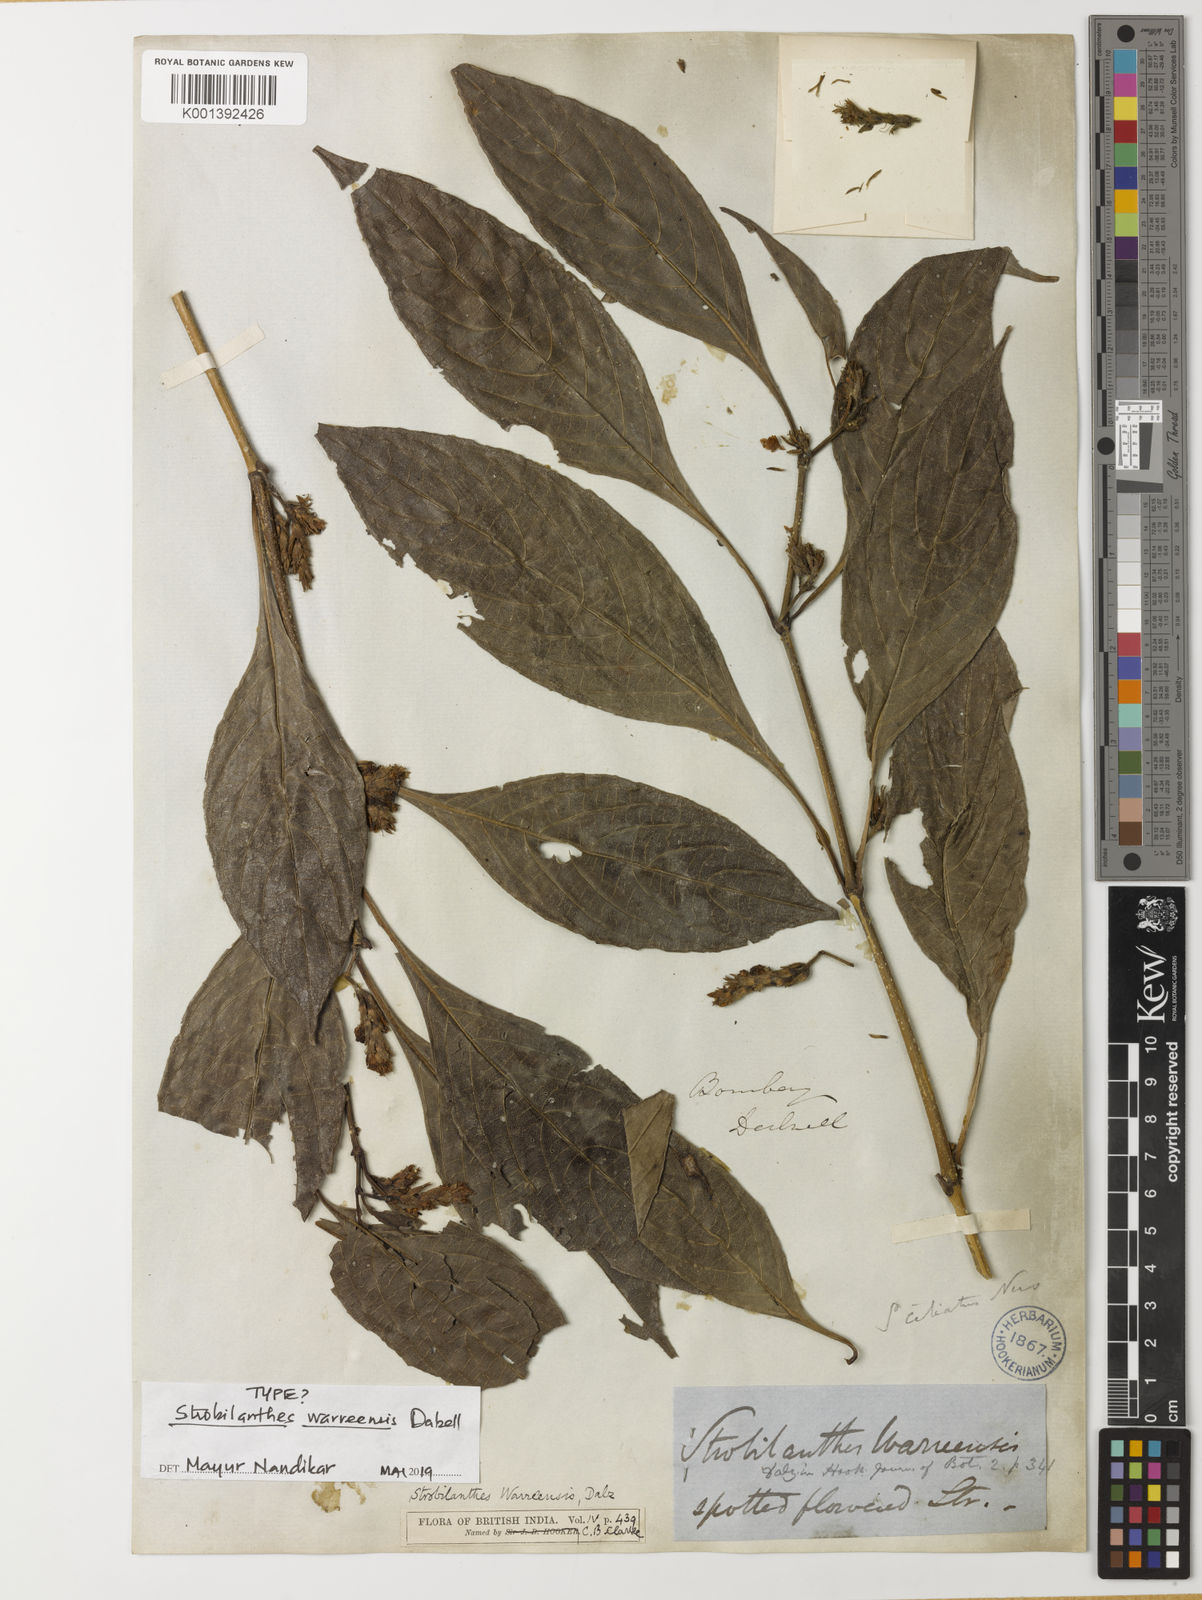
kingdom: Plantae
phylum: Tracheophyta
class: Magnoliopsida
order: Lamiales
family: Acanthaceae
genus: Strobilanthes
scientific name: Strobilanthes ciliata
